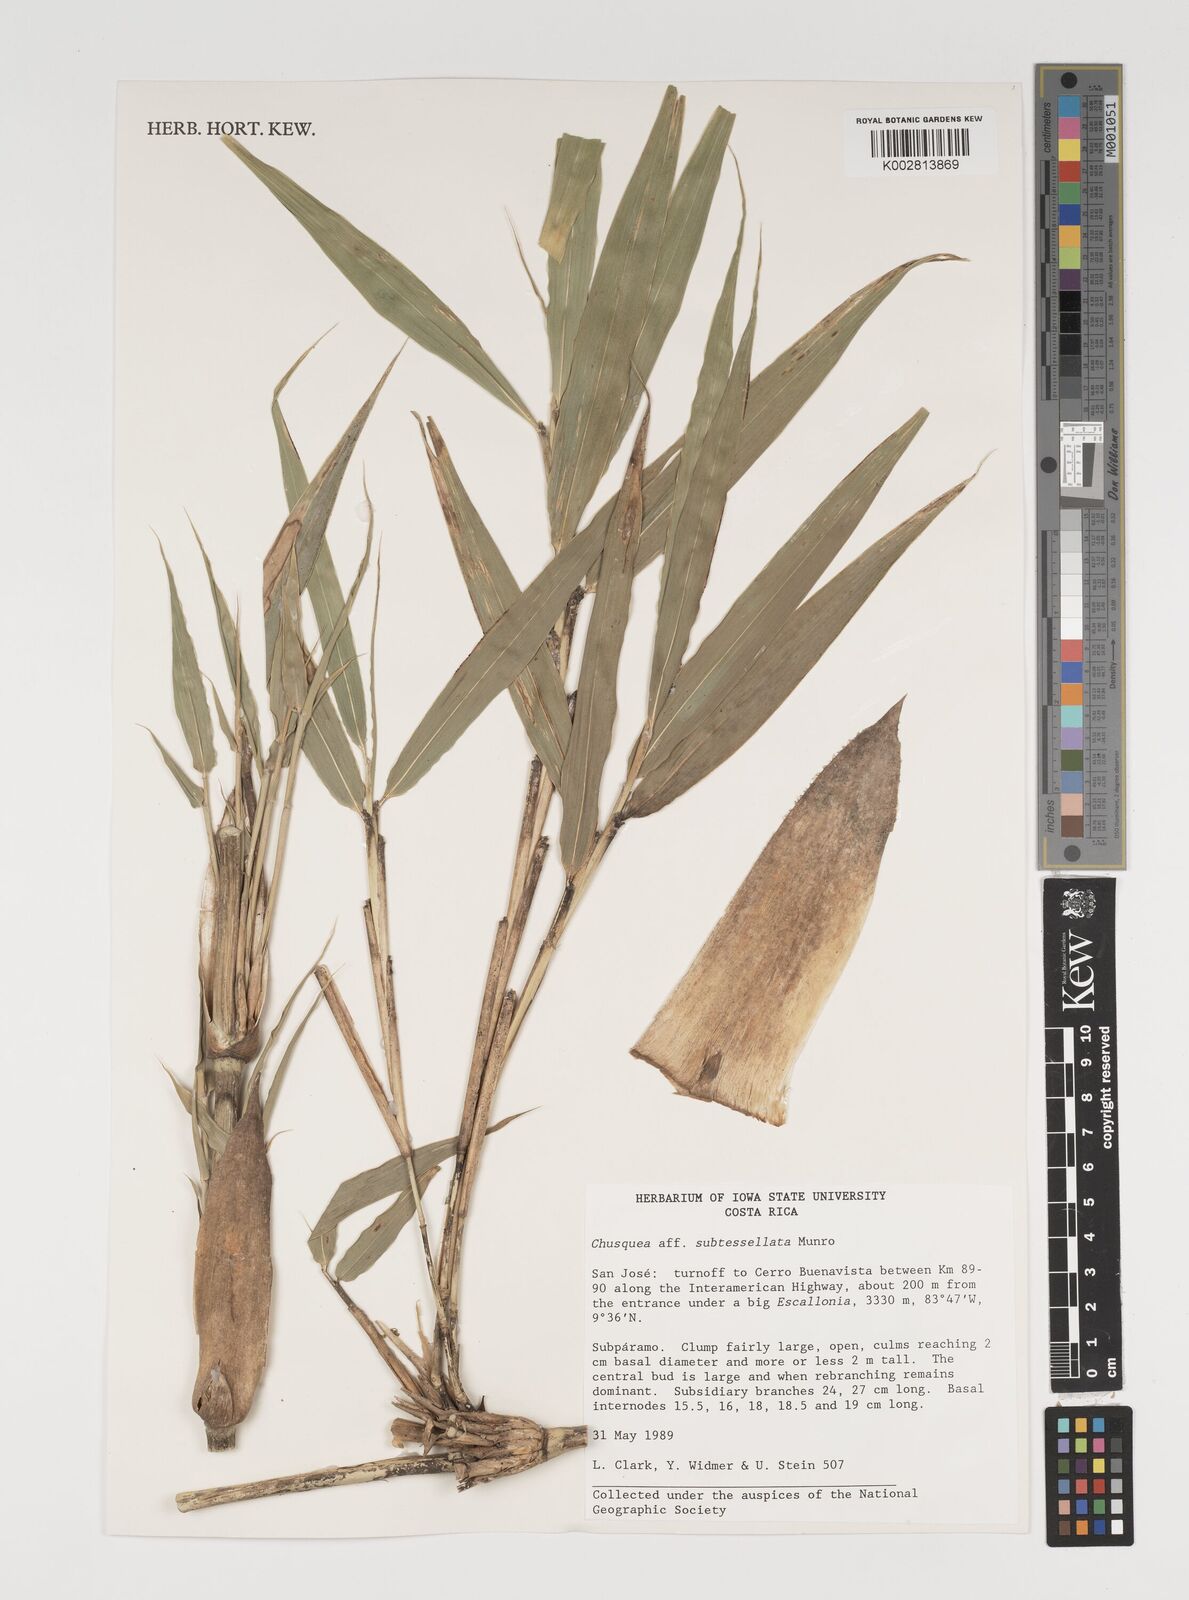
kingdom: Plantae
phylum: Tracheophyta
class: Liliopsida
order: Poales
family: Poaceae
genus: Chusquea
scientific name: Chusquea
